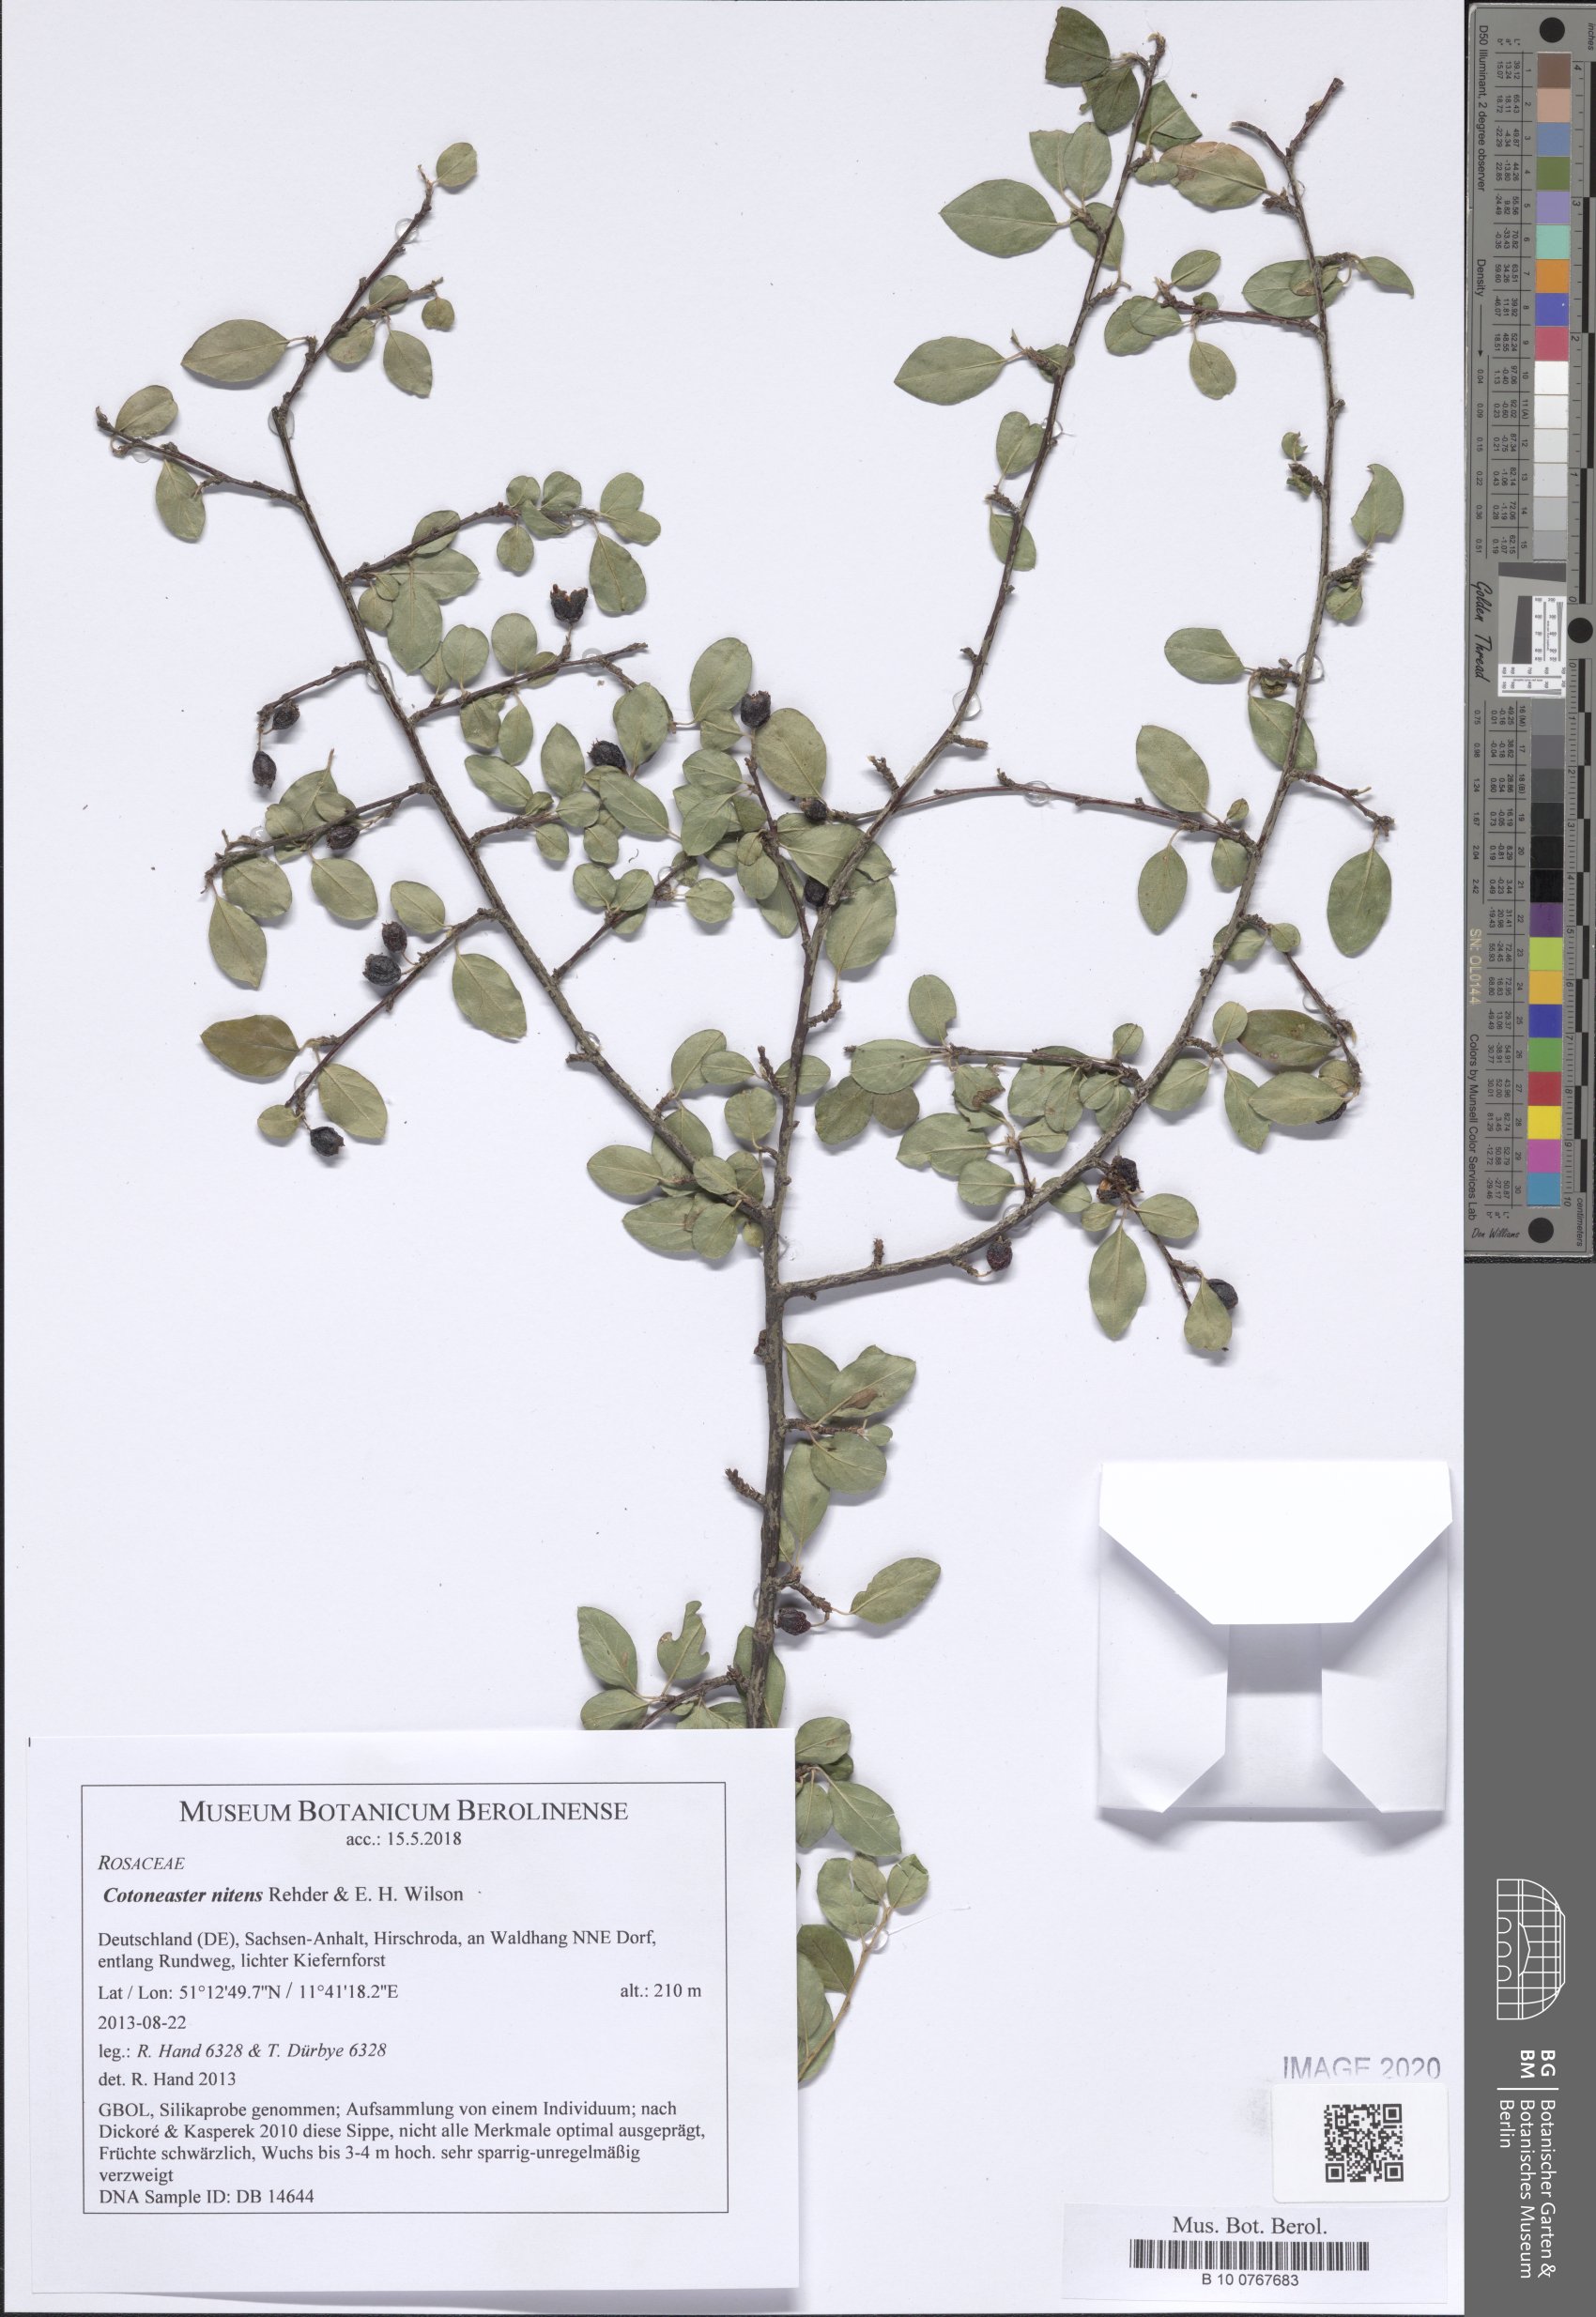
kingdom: Plantae
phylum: Tracheophyta
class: Magnoliopsida
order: Rosales
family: Rosaceae
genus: Cotoneaster
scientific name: Cotoneaster nitens
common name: Few-flowered cotoneaster
